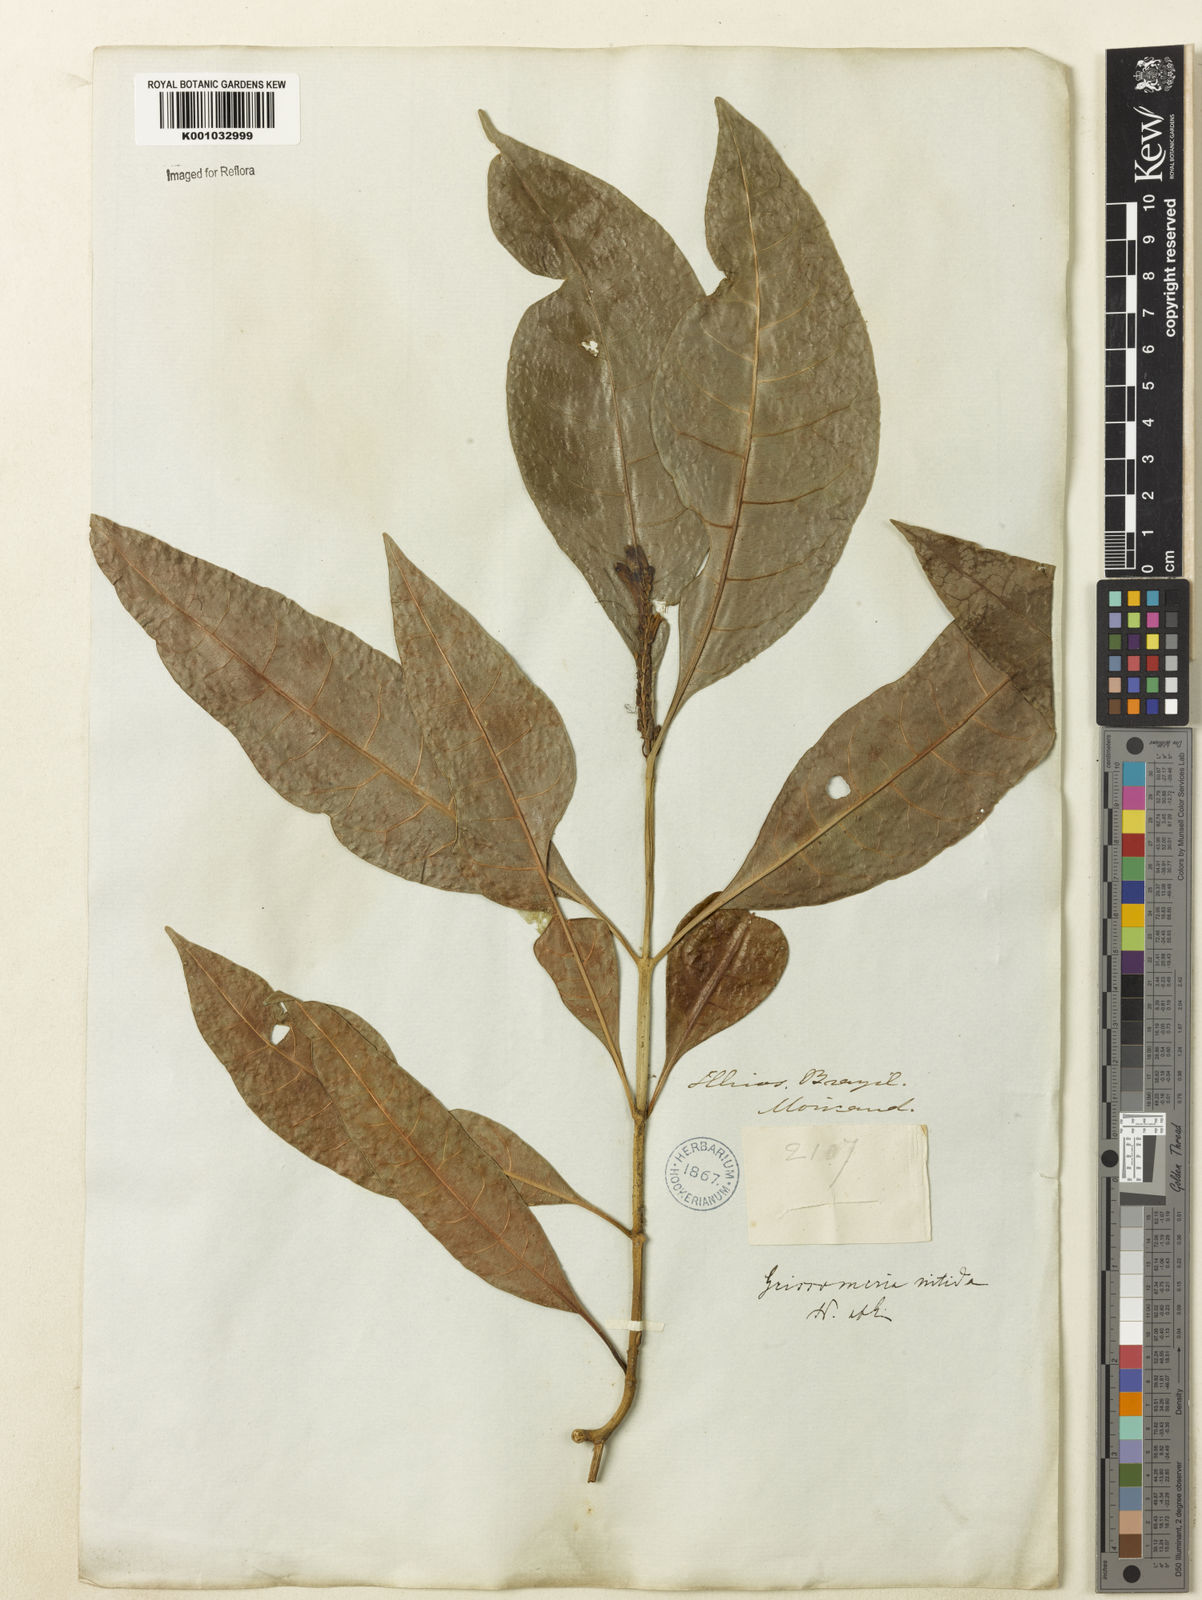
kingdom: Plantae
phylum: Tracheophyta
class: Magnoliopsida
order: Lamiales
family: Acanthaceae
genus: Aphelandra
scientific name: Aphelandra nitida
